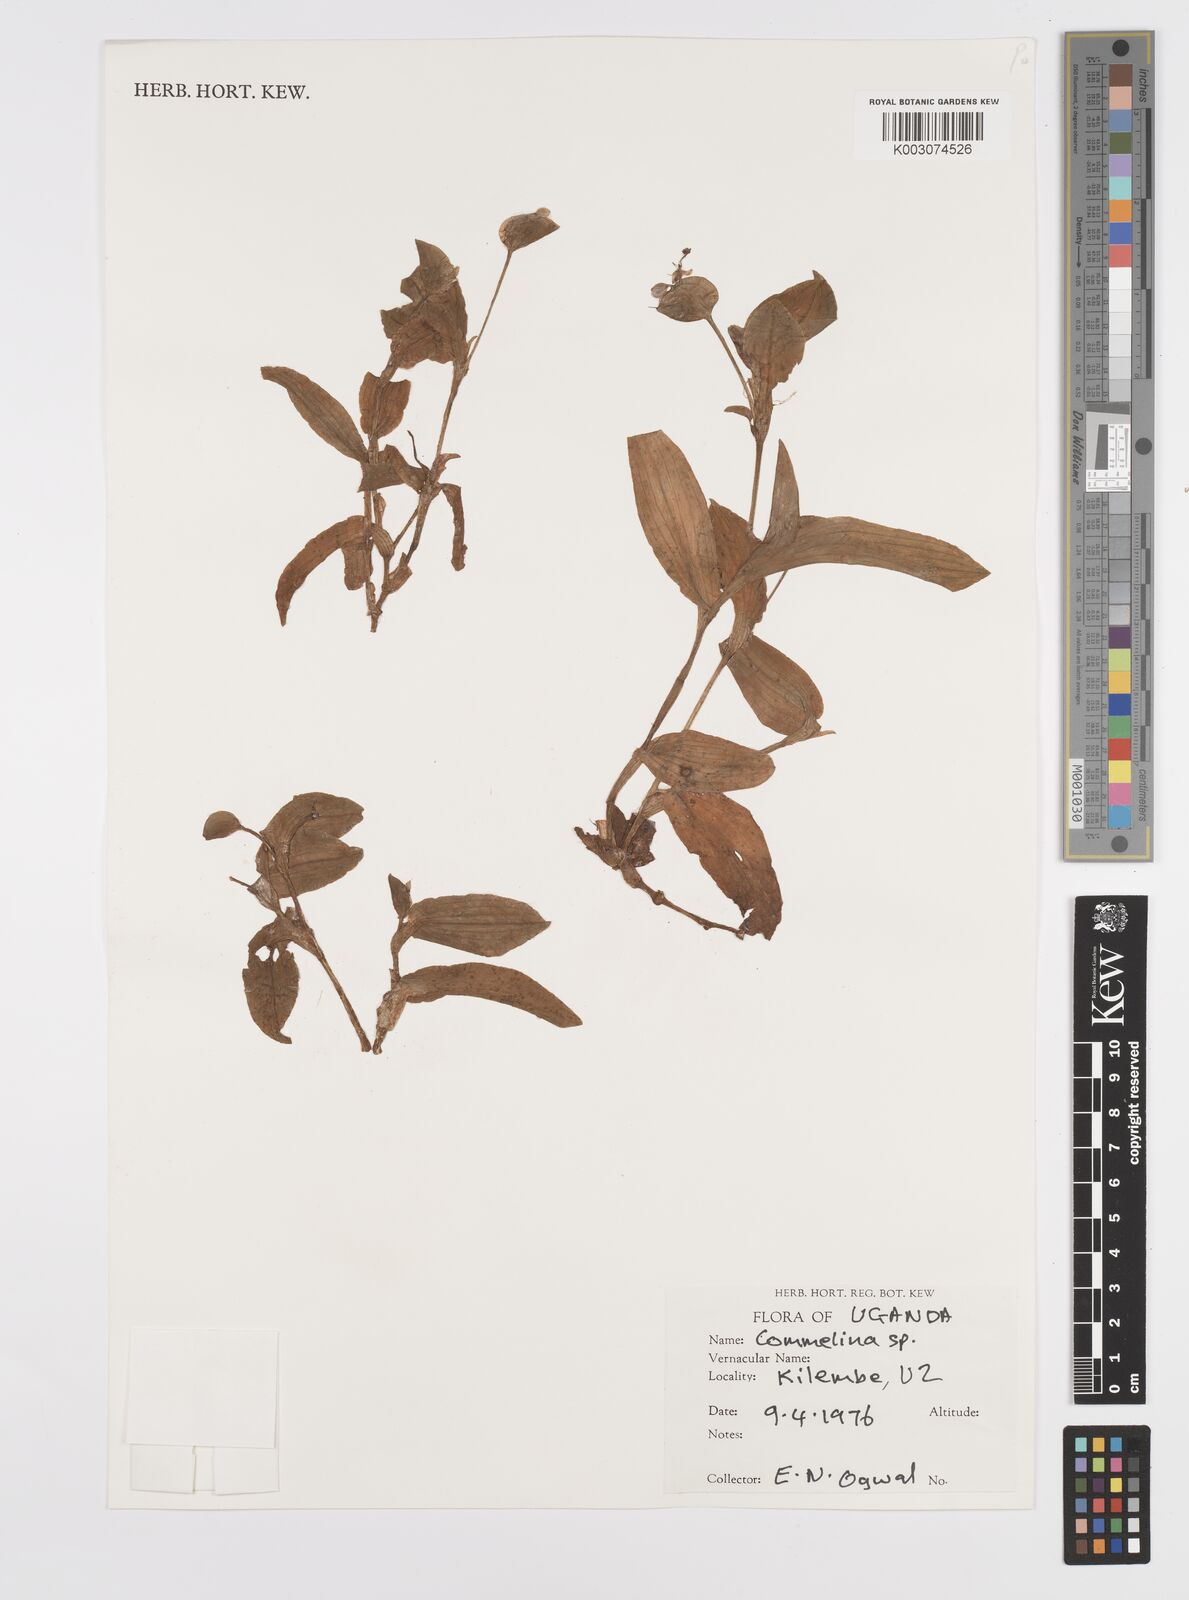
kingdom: Plantae
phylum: Tracheophyta
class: Liliopsida
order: Commelinales
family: Commelinaceae
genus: Commelina
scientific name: Commelina zambesica
